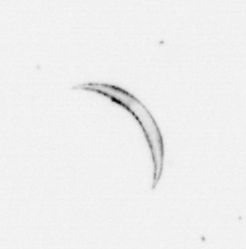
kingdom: Chromista
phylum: Ochrophyta
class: Bacillariophyceae
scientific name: Bacillariophyceae
